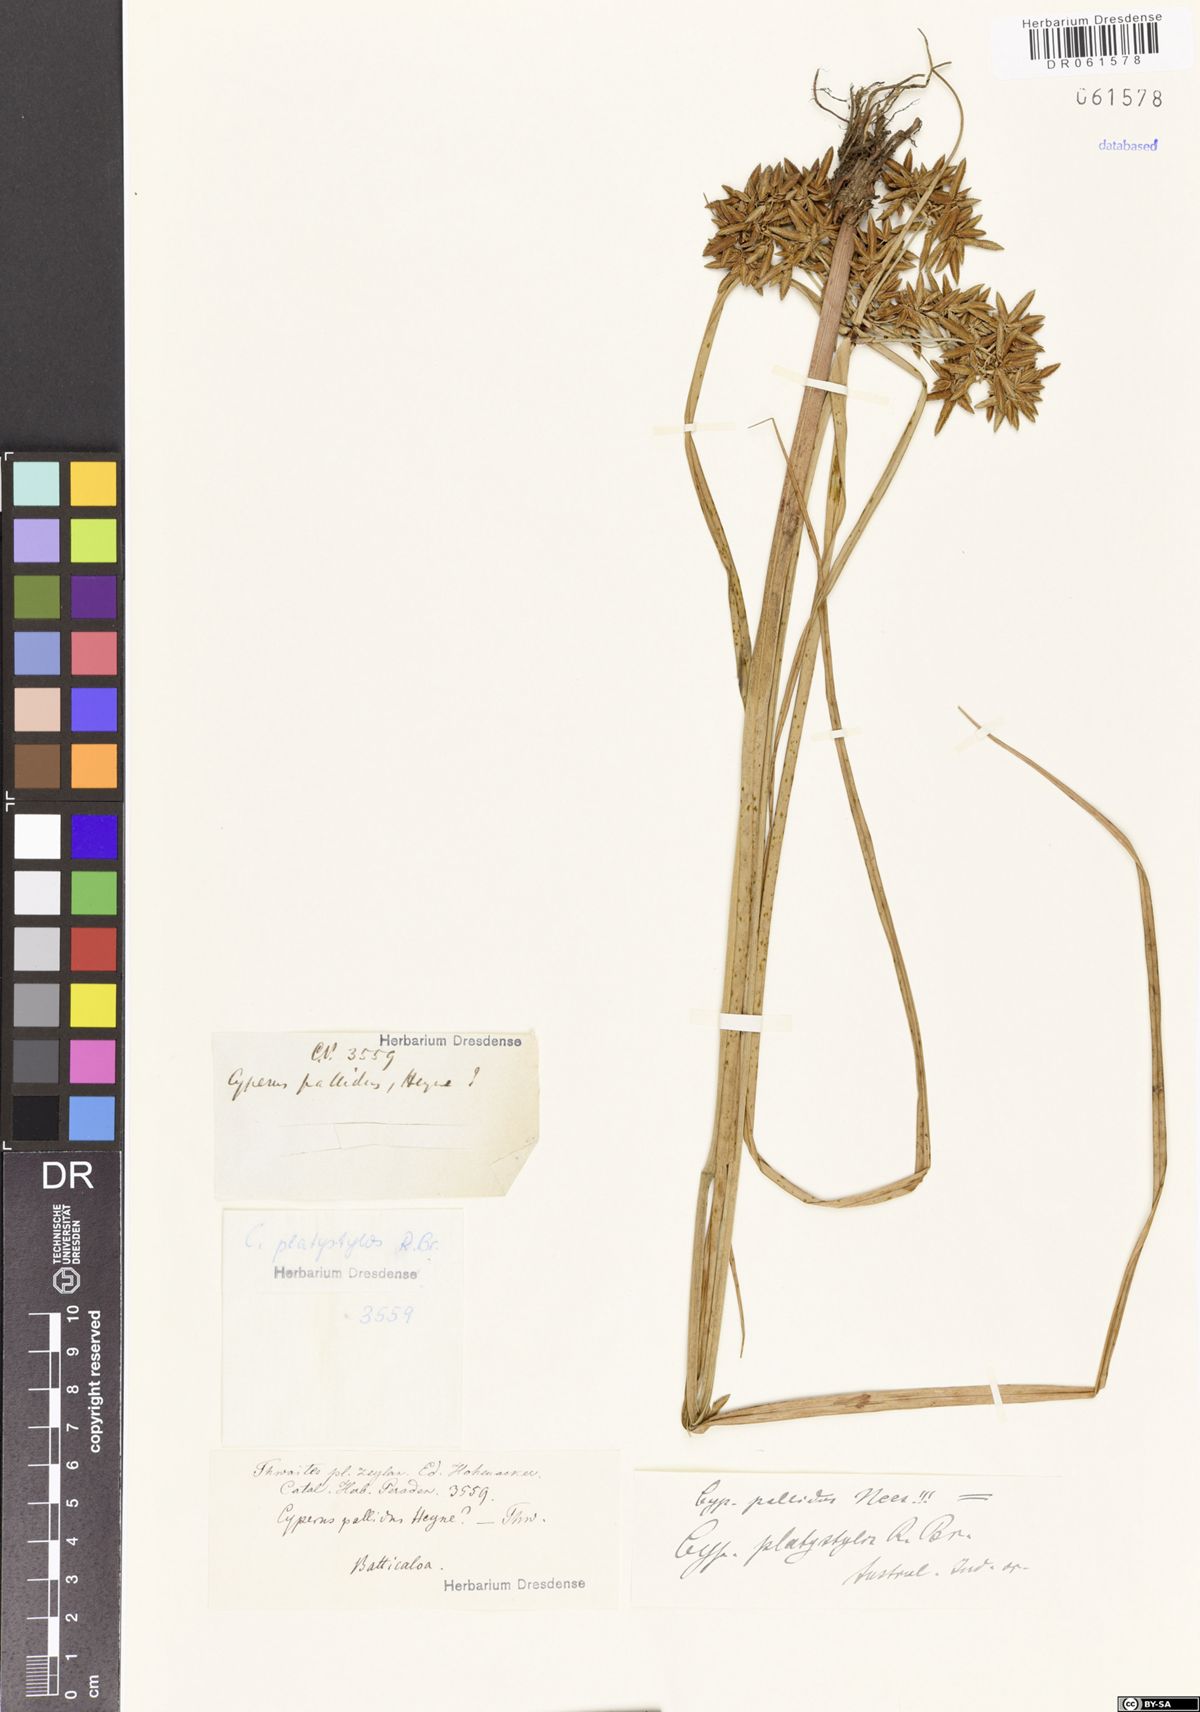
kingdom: Plantae
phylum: Tracheophyta
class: Liliopsida
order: Poales
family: Cyperaceae
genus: Cyperus
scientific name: Cyperus platystylis
